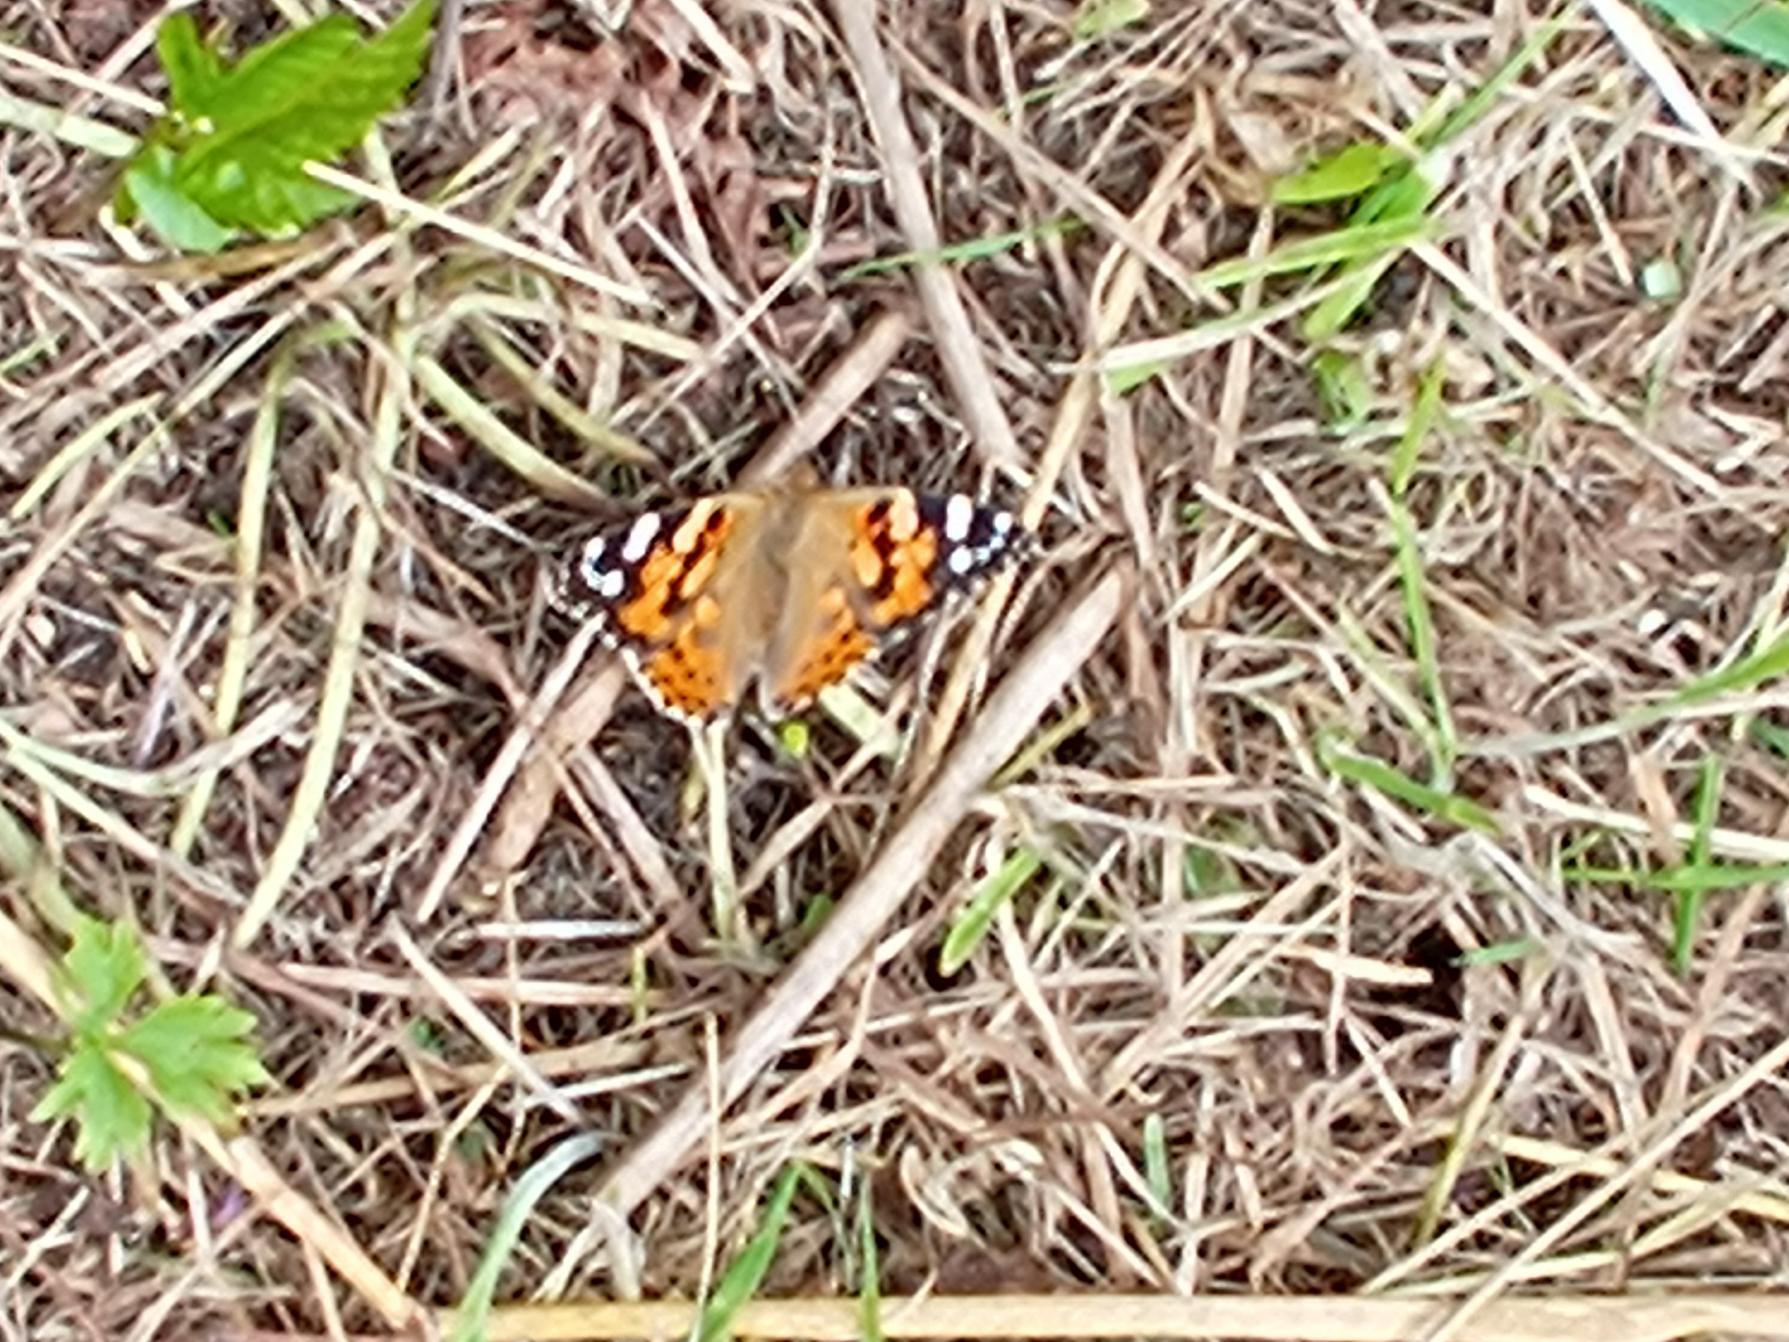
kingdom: Animalia
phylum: Arthropoda
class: Insecta
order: Lepidoptera
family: Nymphalidae
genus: Vanessa
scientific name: Vanessa cardui
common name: Tidselsommerfugl
